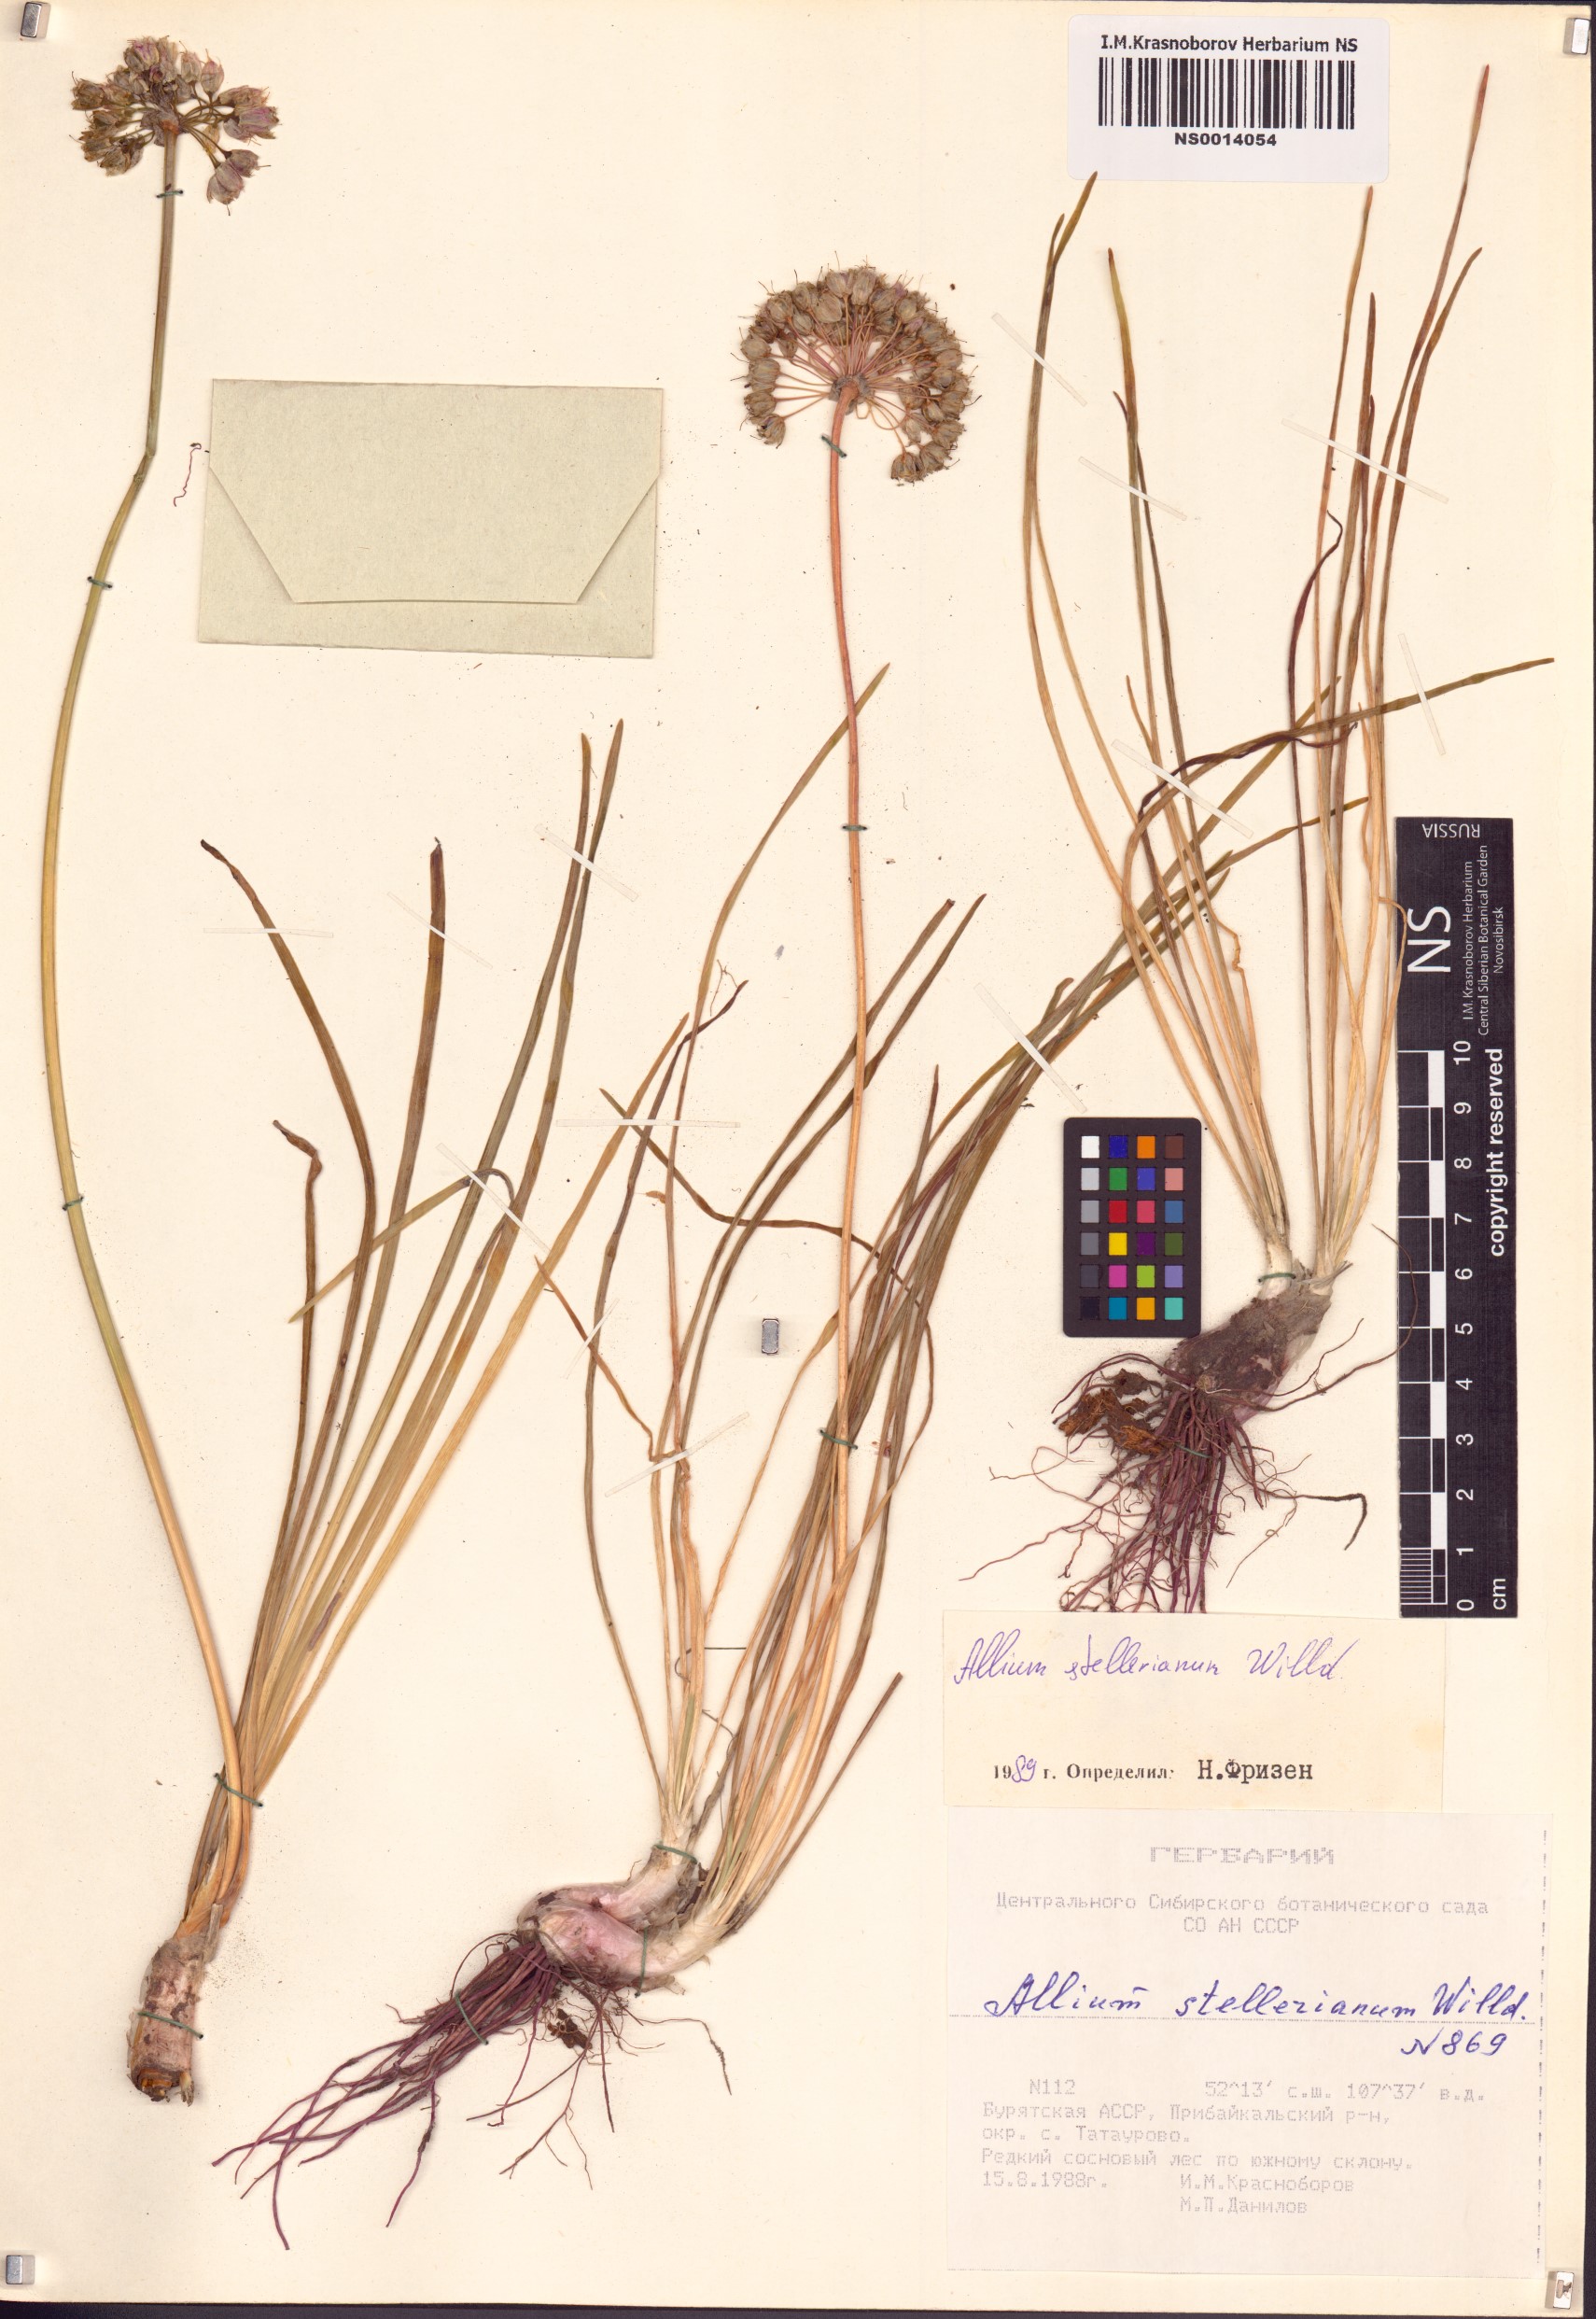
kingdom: Plantae
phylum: Tracheophyta
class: Liliopsida
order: Asparagales
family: Amaryllidaceae
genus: Allium
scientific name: Allium stellerianum
